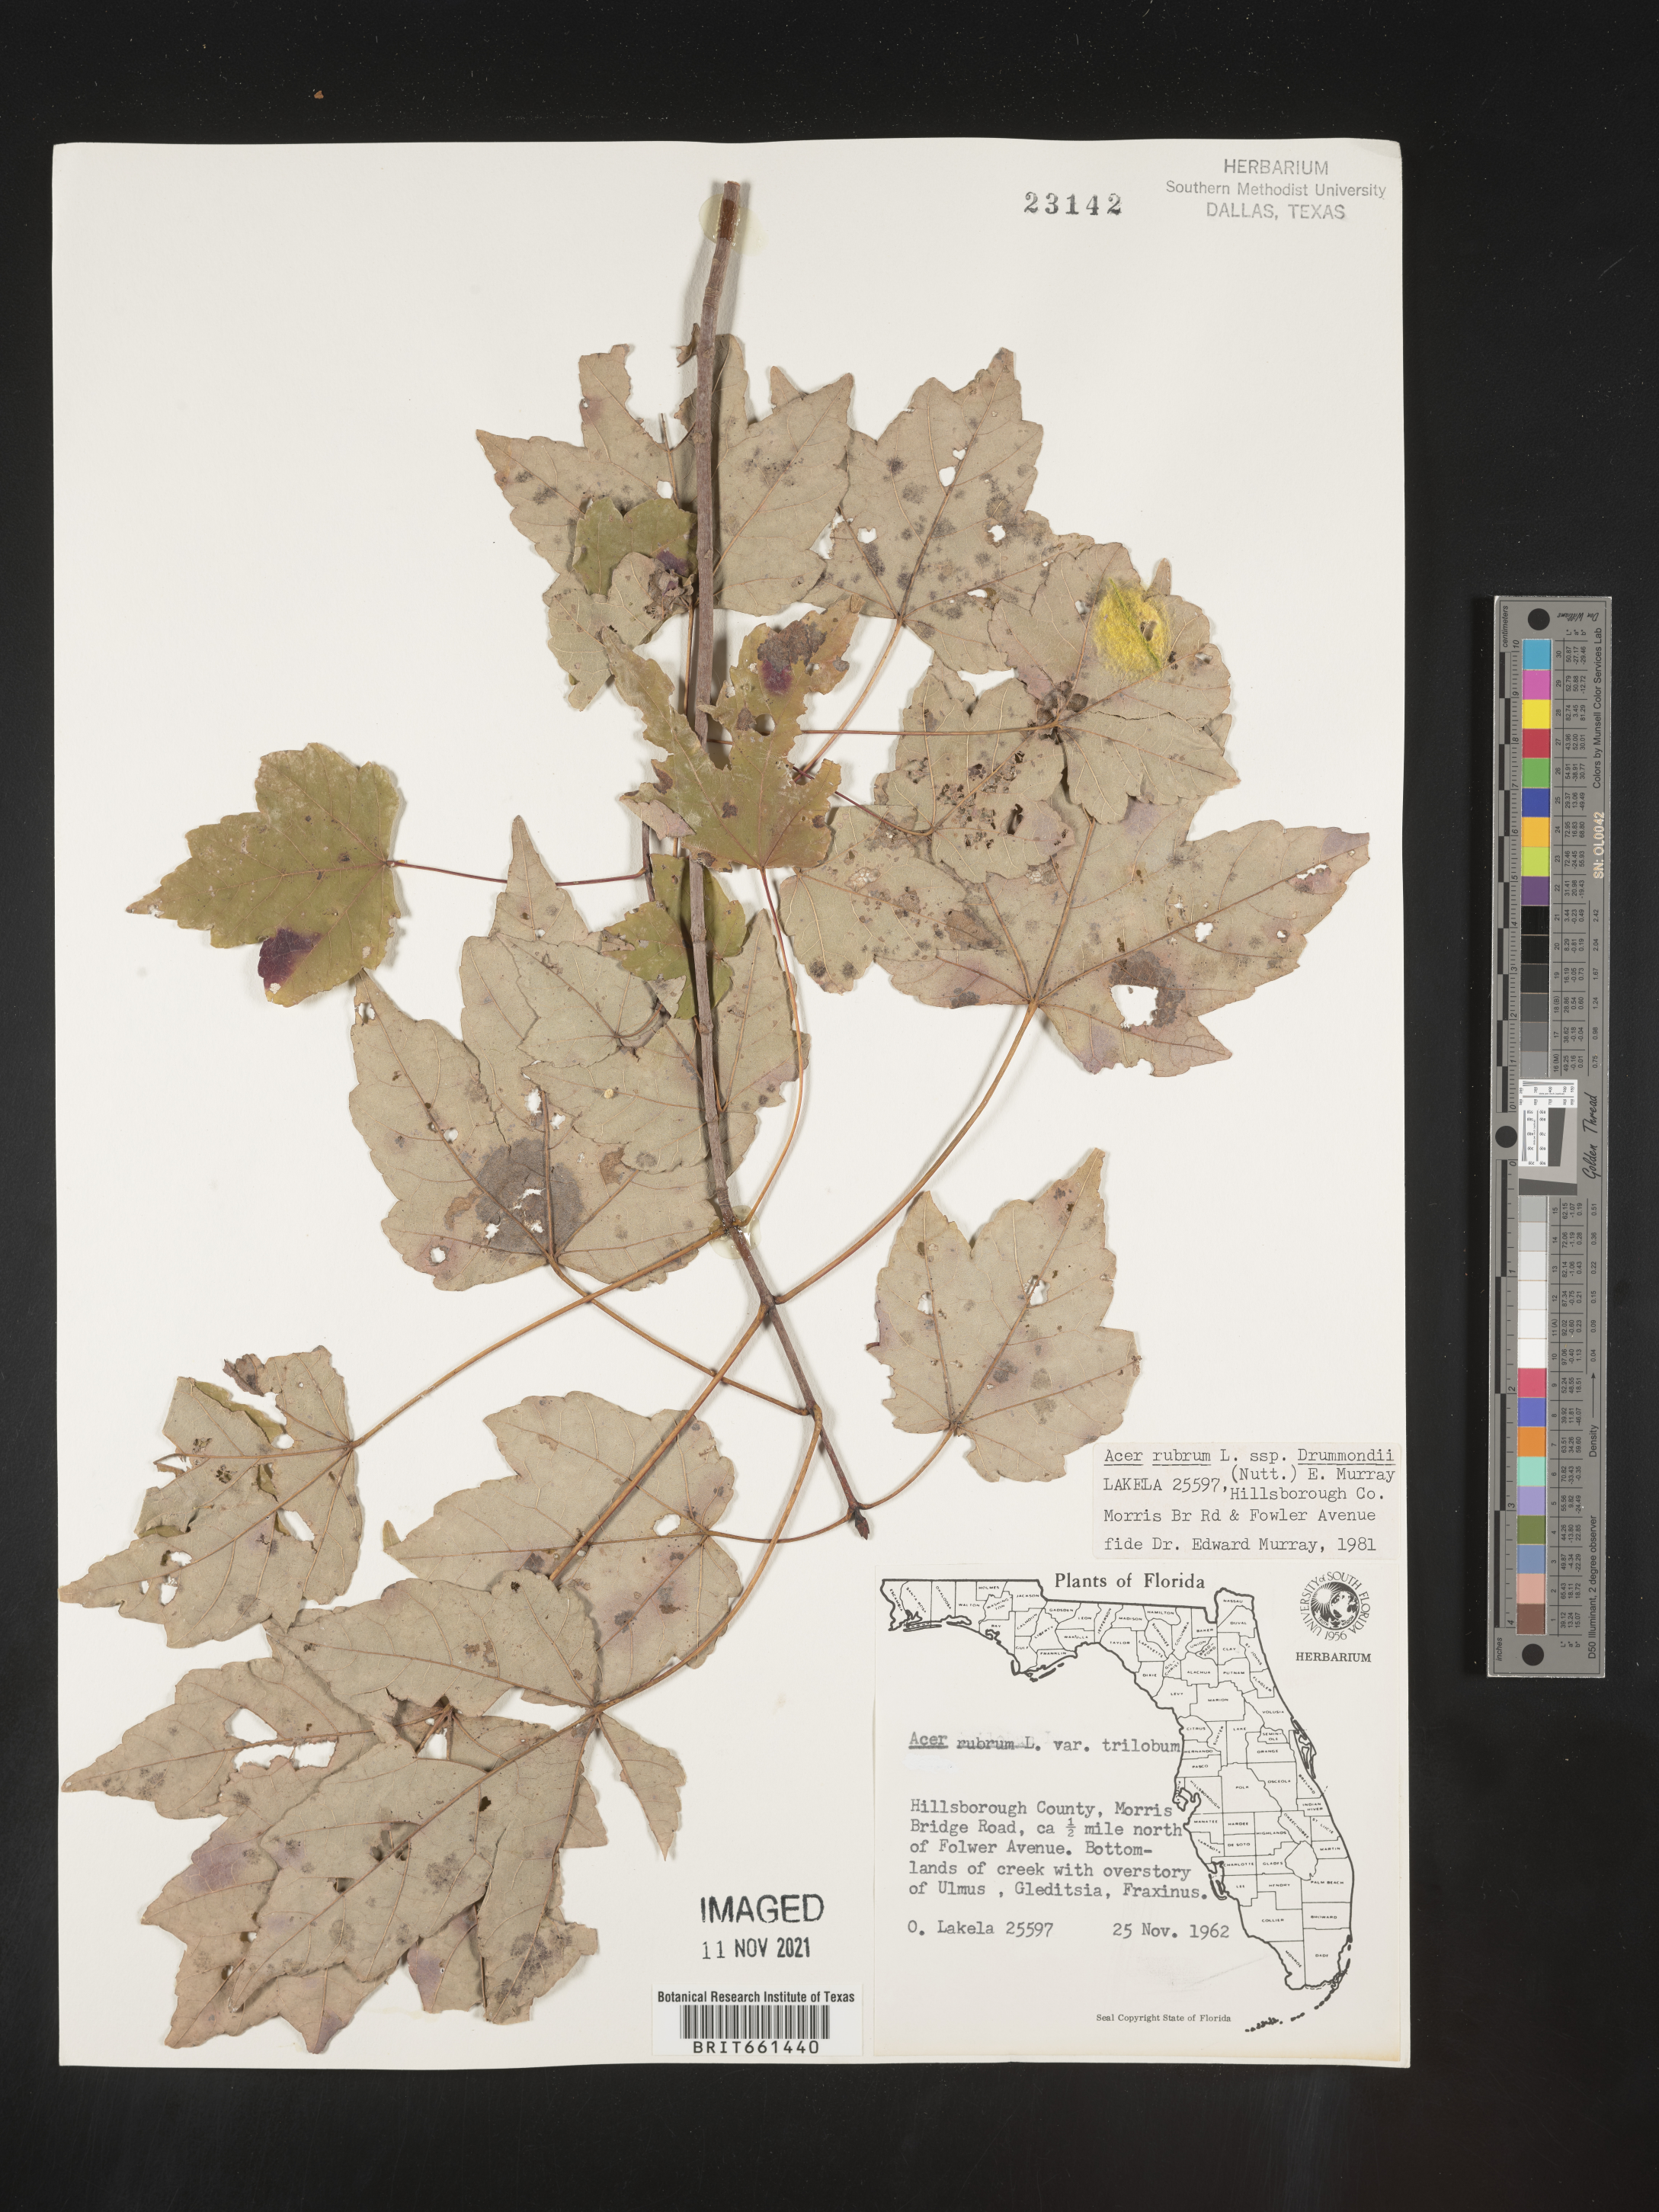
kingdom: Plantae
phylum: Tracheophyta
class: Magnoliopsida
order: Sapindales
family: Sapindaceae
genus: Acer
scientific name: Acer rubrum
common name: Red maple
